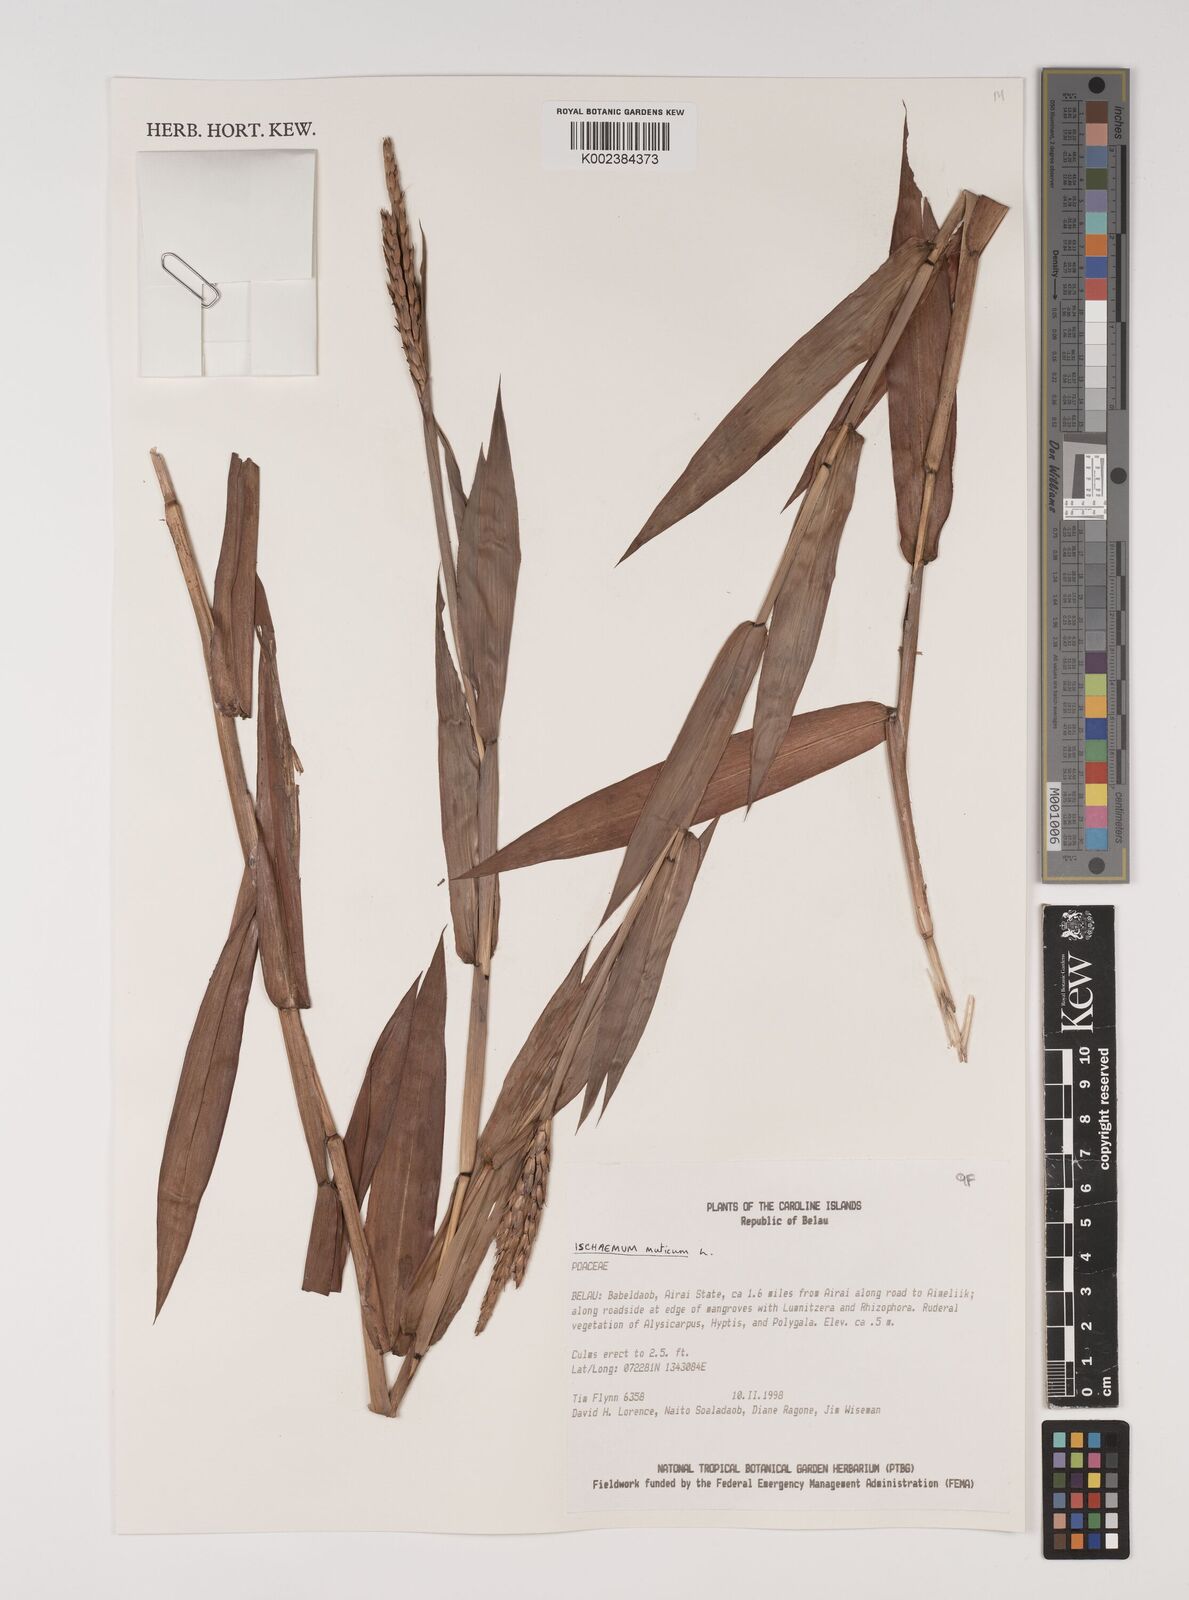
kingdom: Plantae
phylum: Tracheophyta
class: Liliopsida
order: Poales
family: Poaceae
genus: Ischaemum
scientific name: Ischaemum muticum
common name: Drought grass
